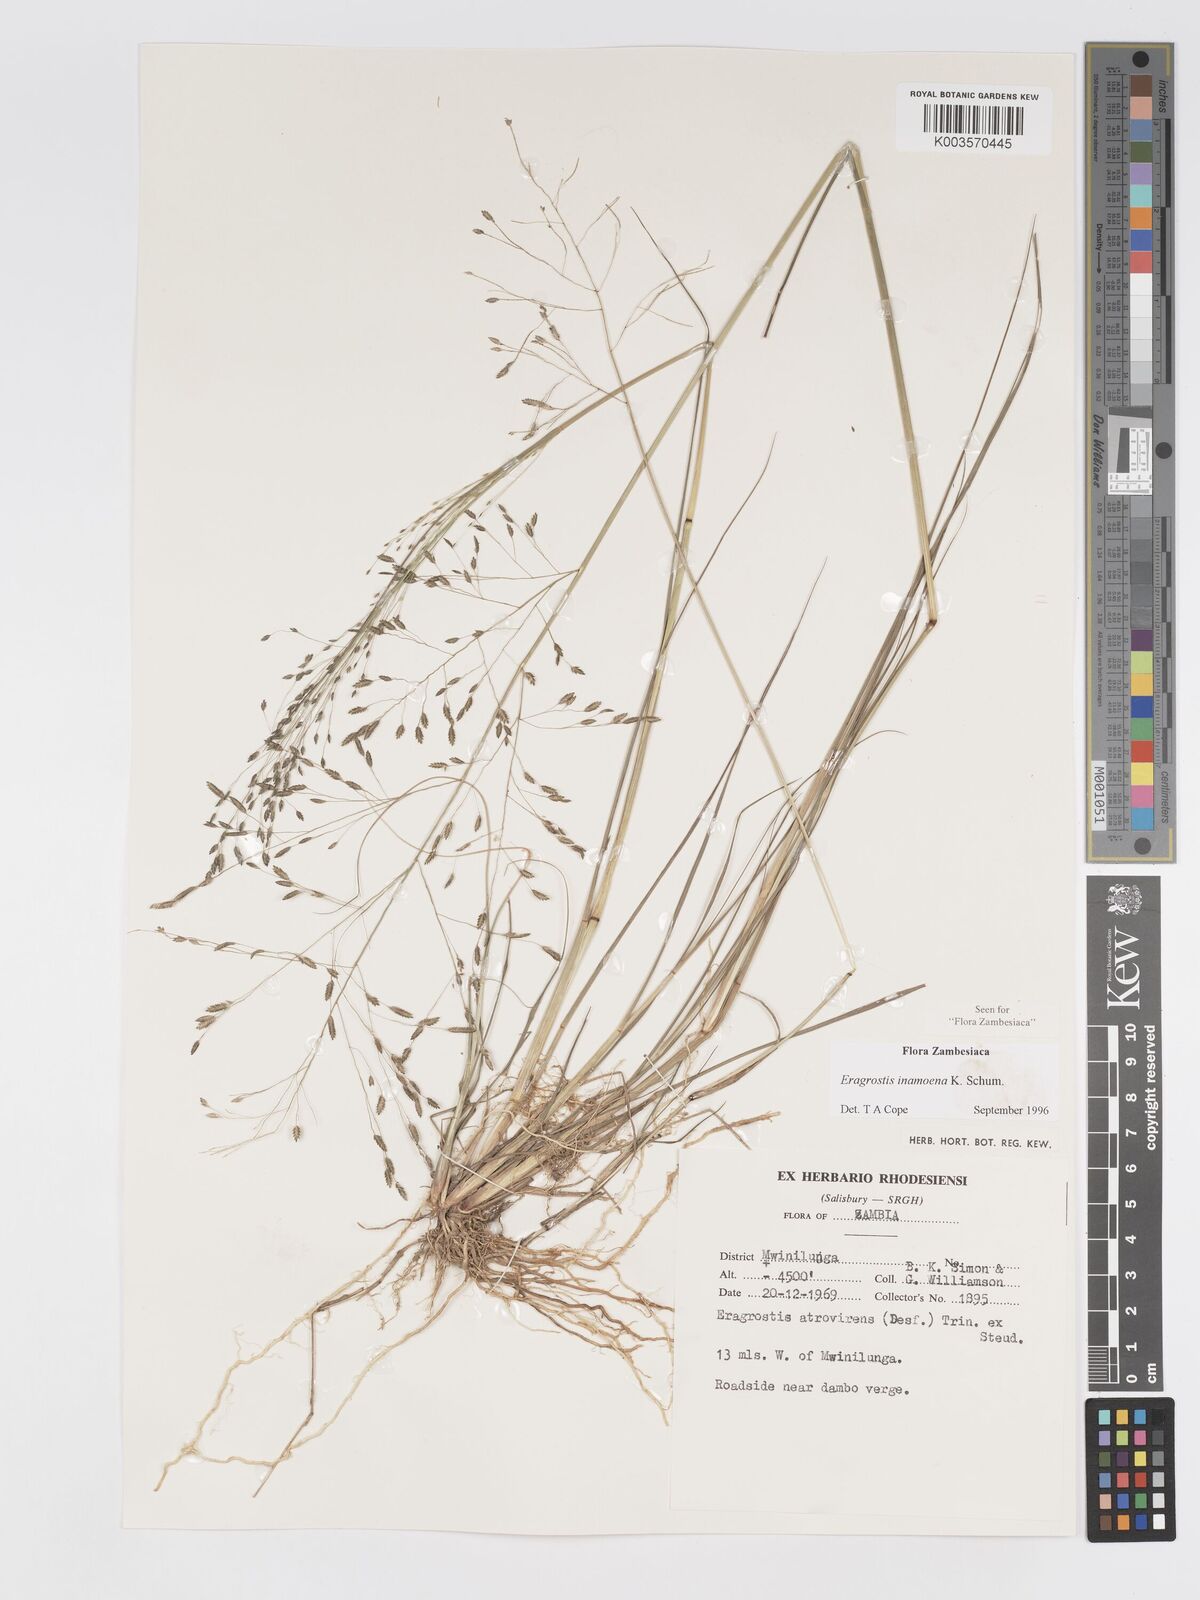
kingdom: Plantae
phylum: Tracheophyta
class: Liliopsida
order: Poales
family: Poaceae
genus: Eragrostis
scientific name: Eragrostis inamoena
